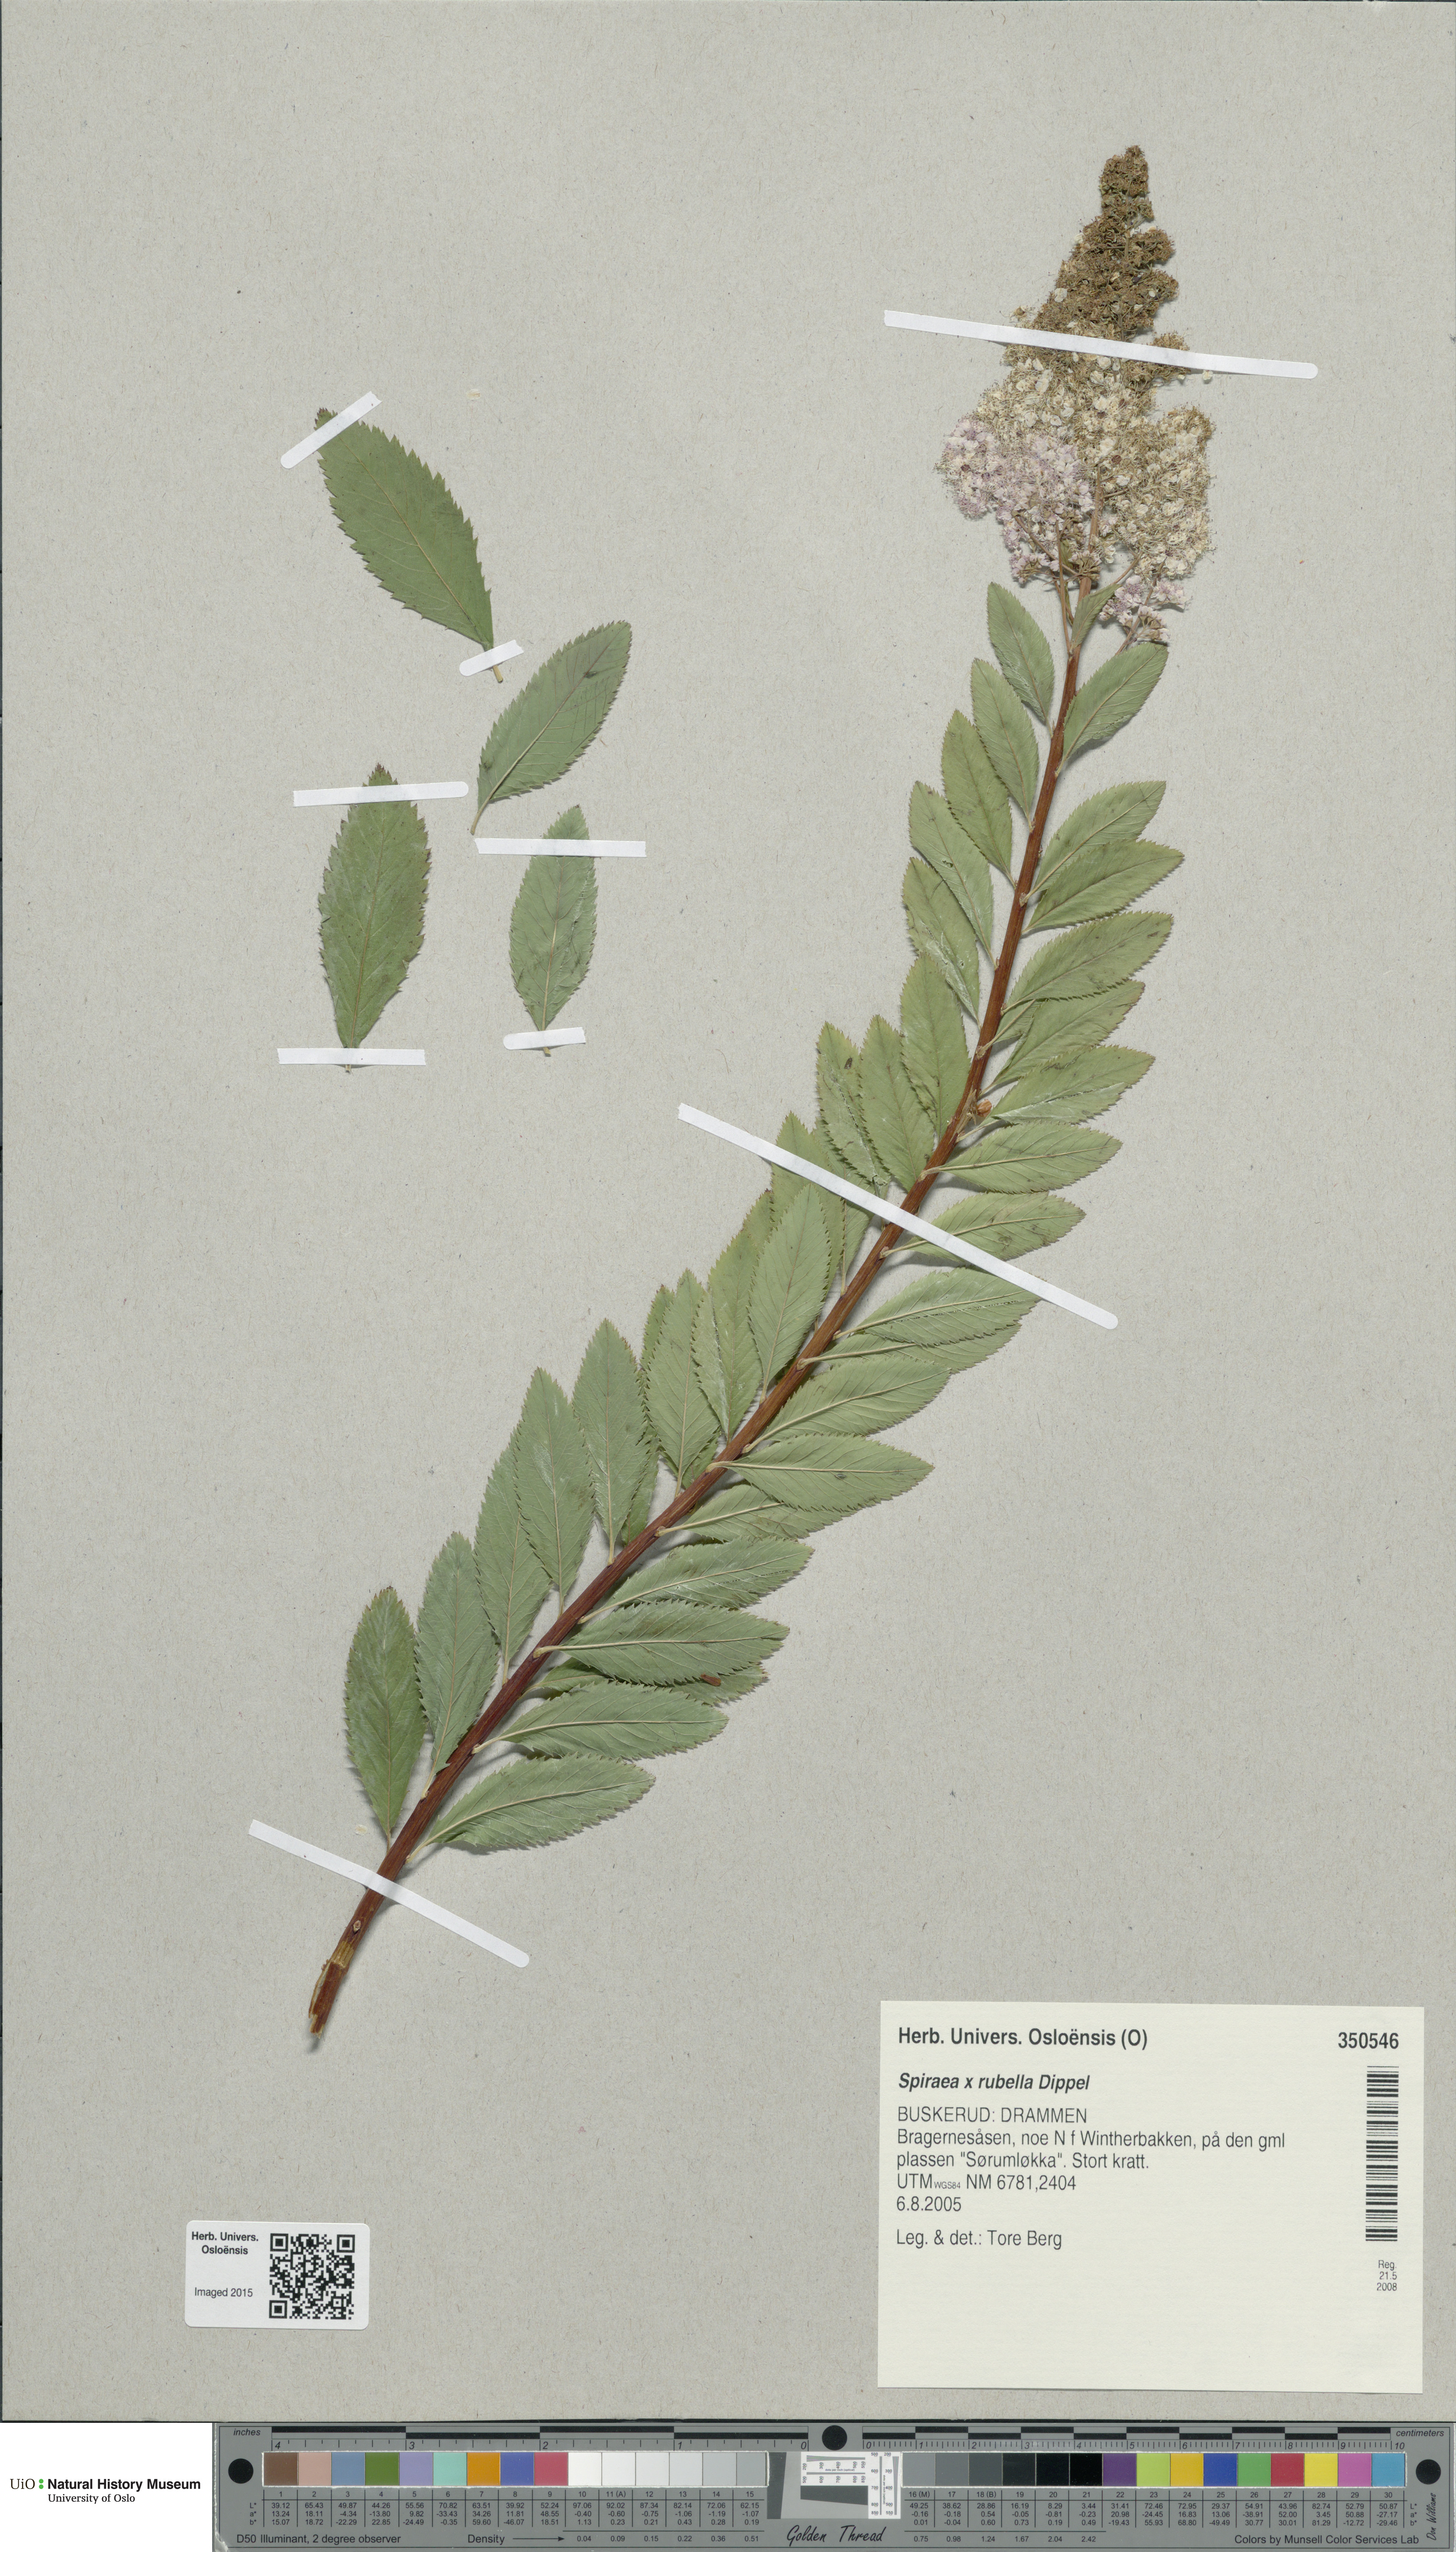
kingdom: Plantae
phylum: Tracheophyta
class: Magnoliopsida
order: Rosales
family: Rosaceae
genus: Spiraea
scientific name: Spiraea rosalba
